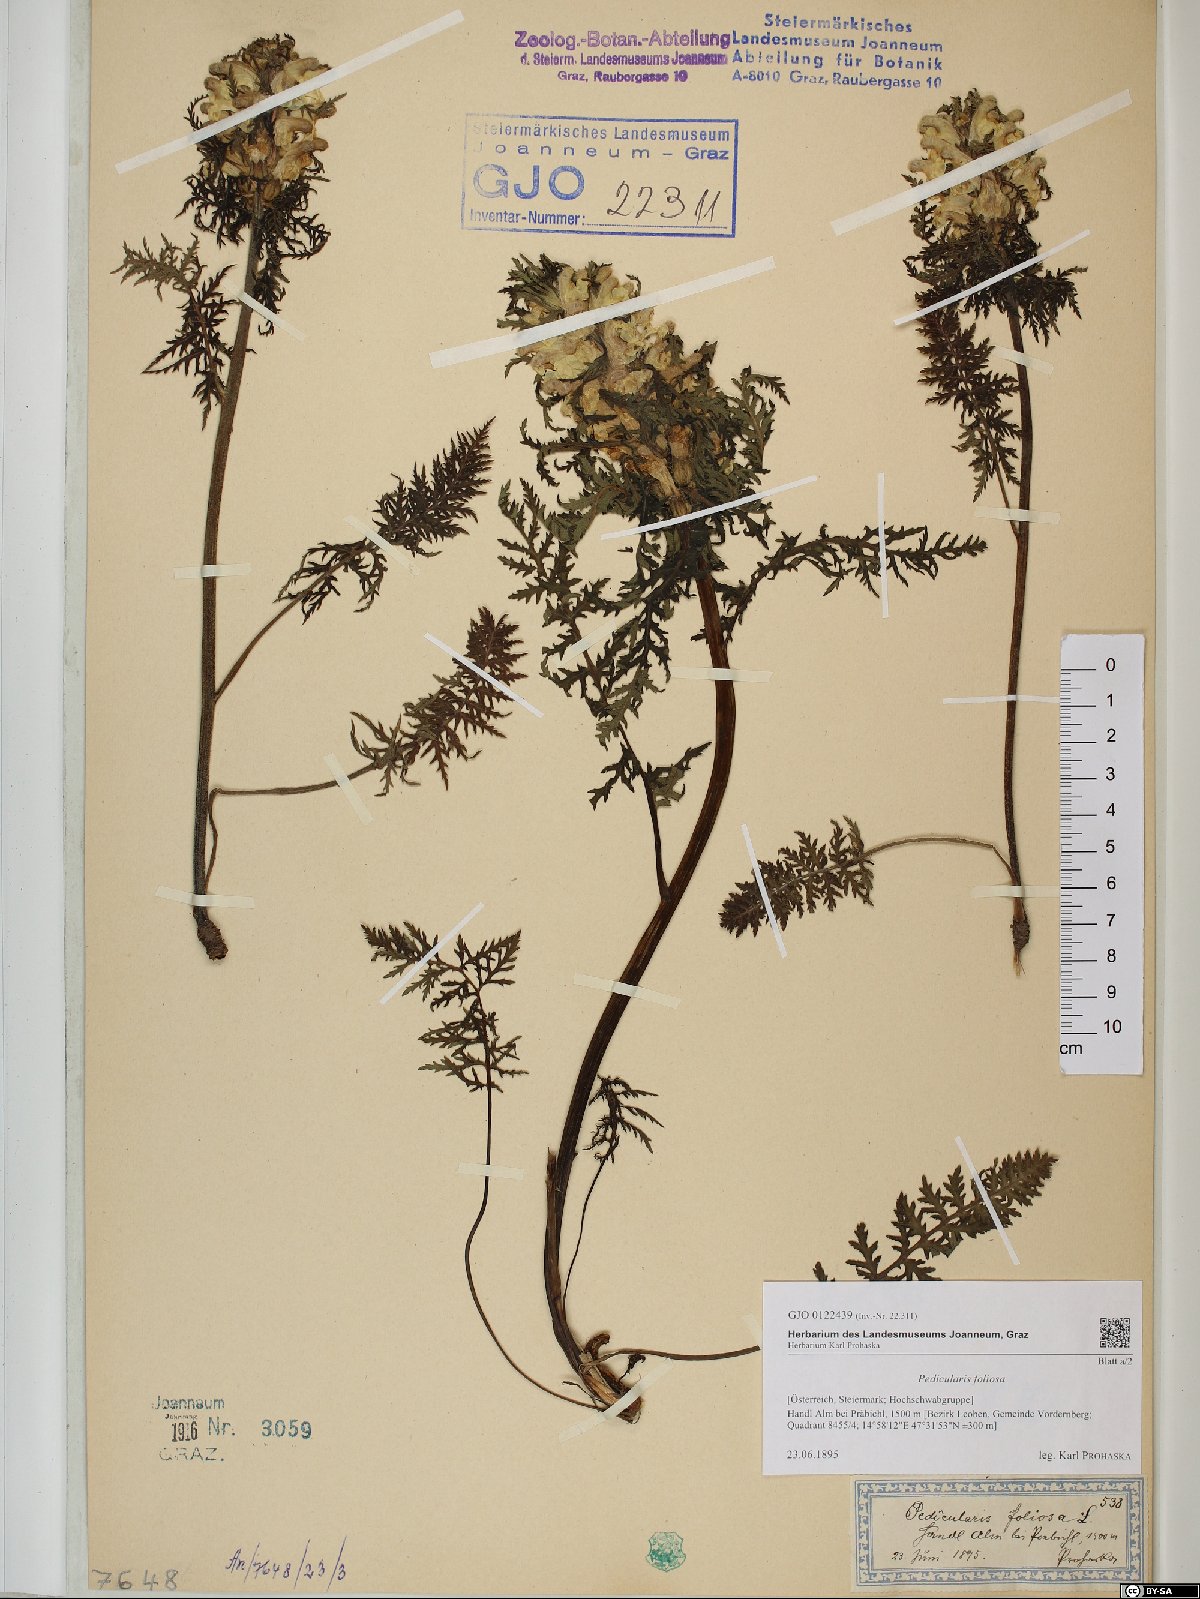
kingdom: Plantae
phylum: Tracheophyta
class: Magnoliopsida
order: Lamiales
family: Orobanchaceae
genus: Pedicularis
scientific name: Pedicularis foliosa
